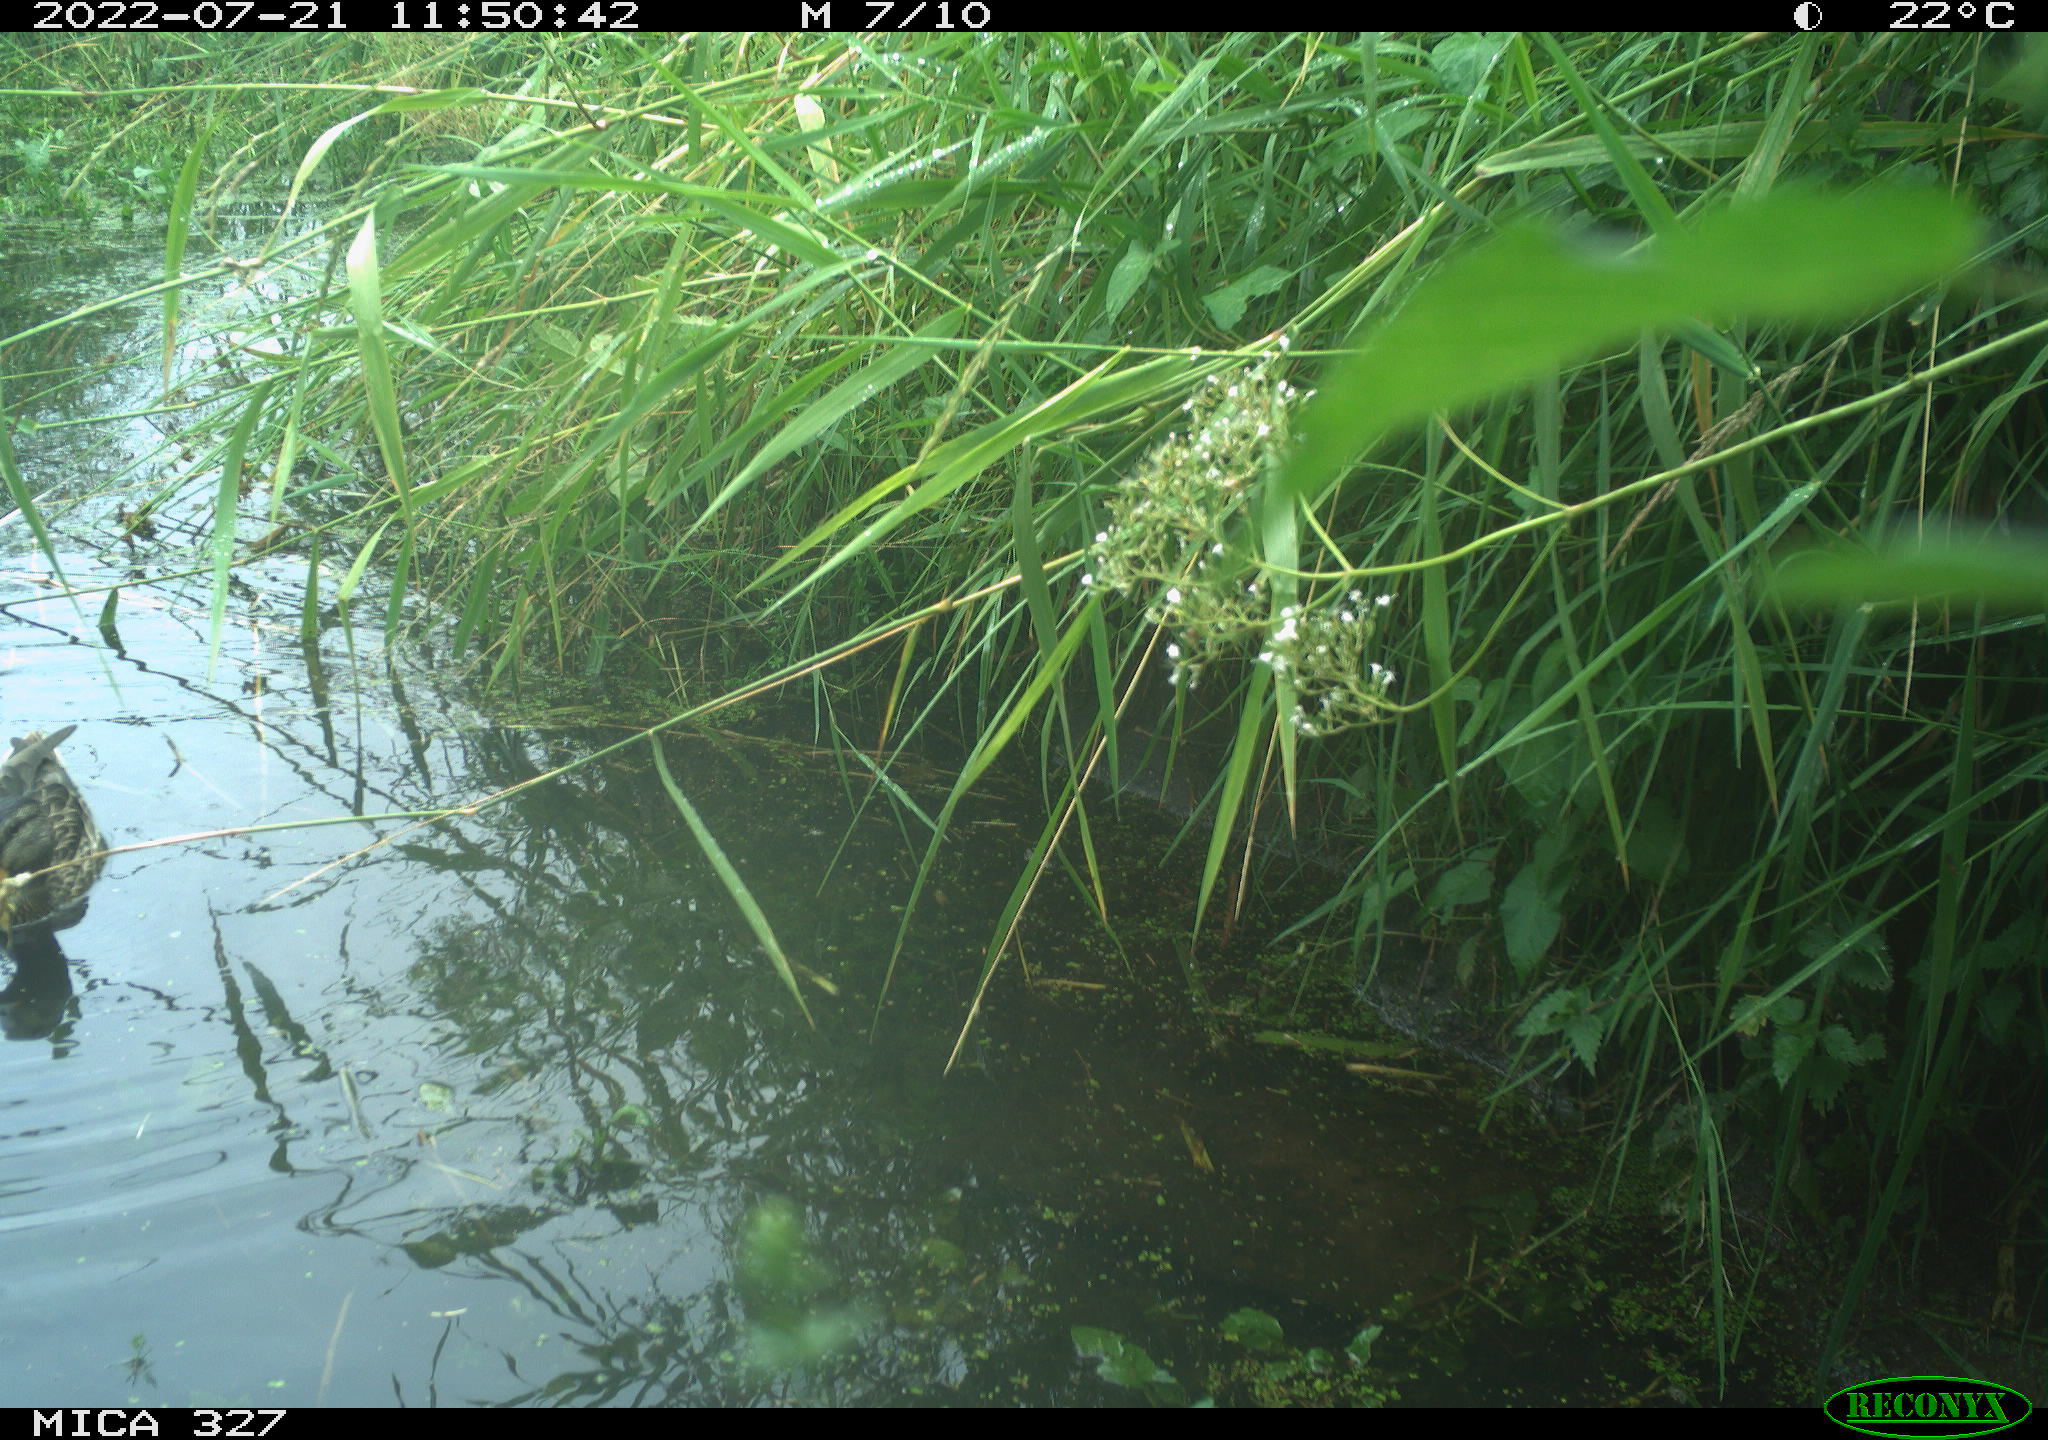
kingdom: Animalia
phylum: Chordata
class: Aves
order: Anseriformes
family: Anatidae
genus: Anas
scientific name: Anas platyrhynchos
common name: Mallard
